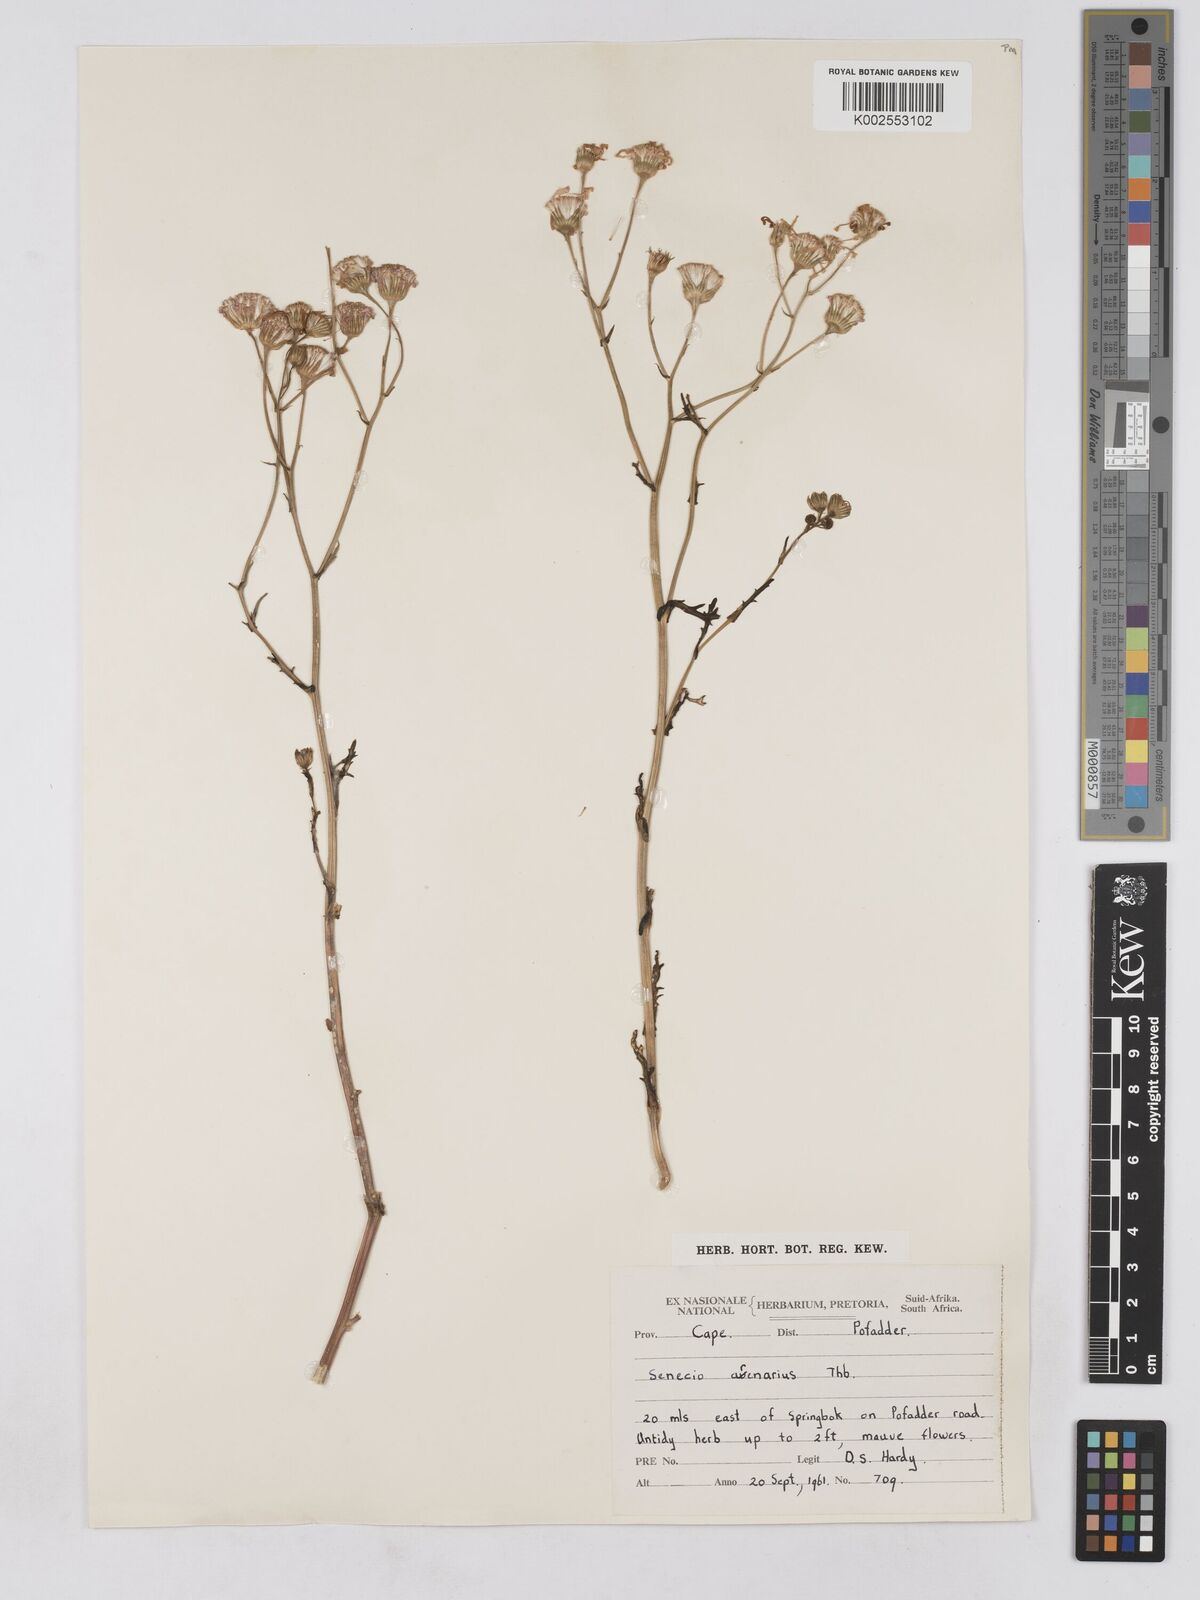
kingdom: Plantae
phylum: Tracheophyta
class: Magnoliopsida
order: Asterales
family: Asteraceae
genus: Senecio
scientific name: Senecio arenarius
